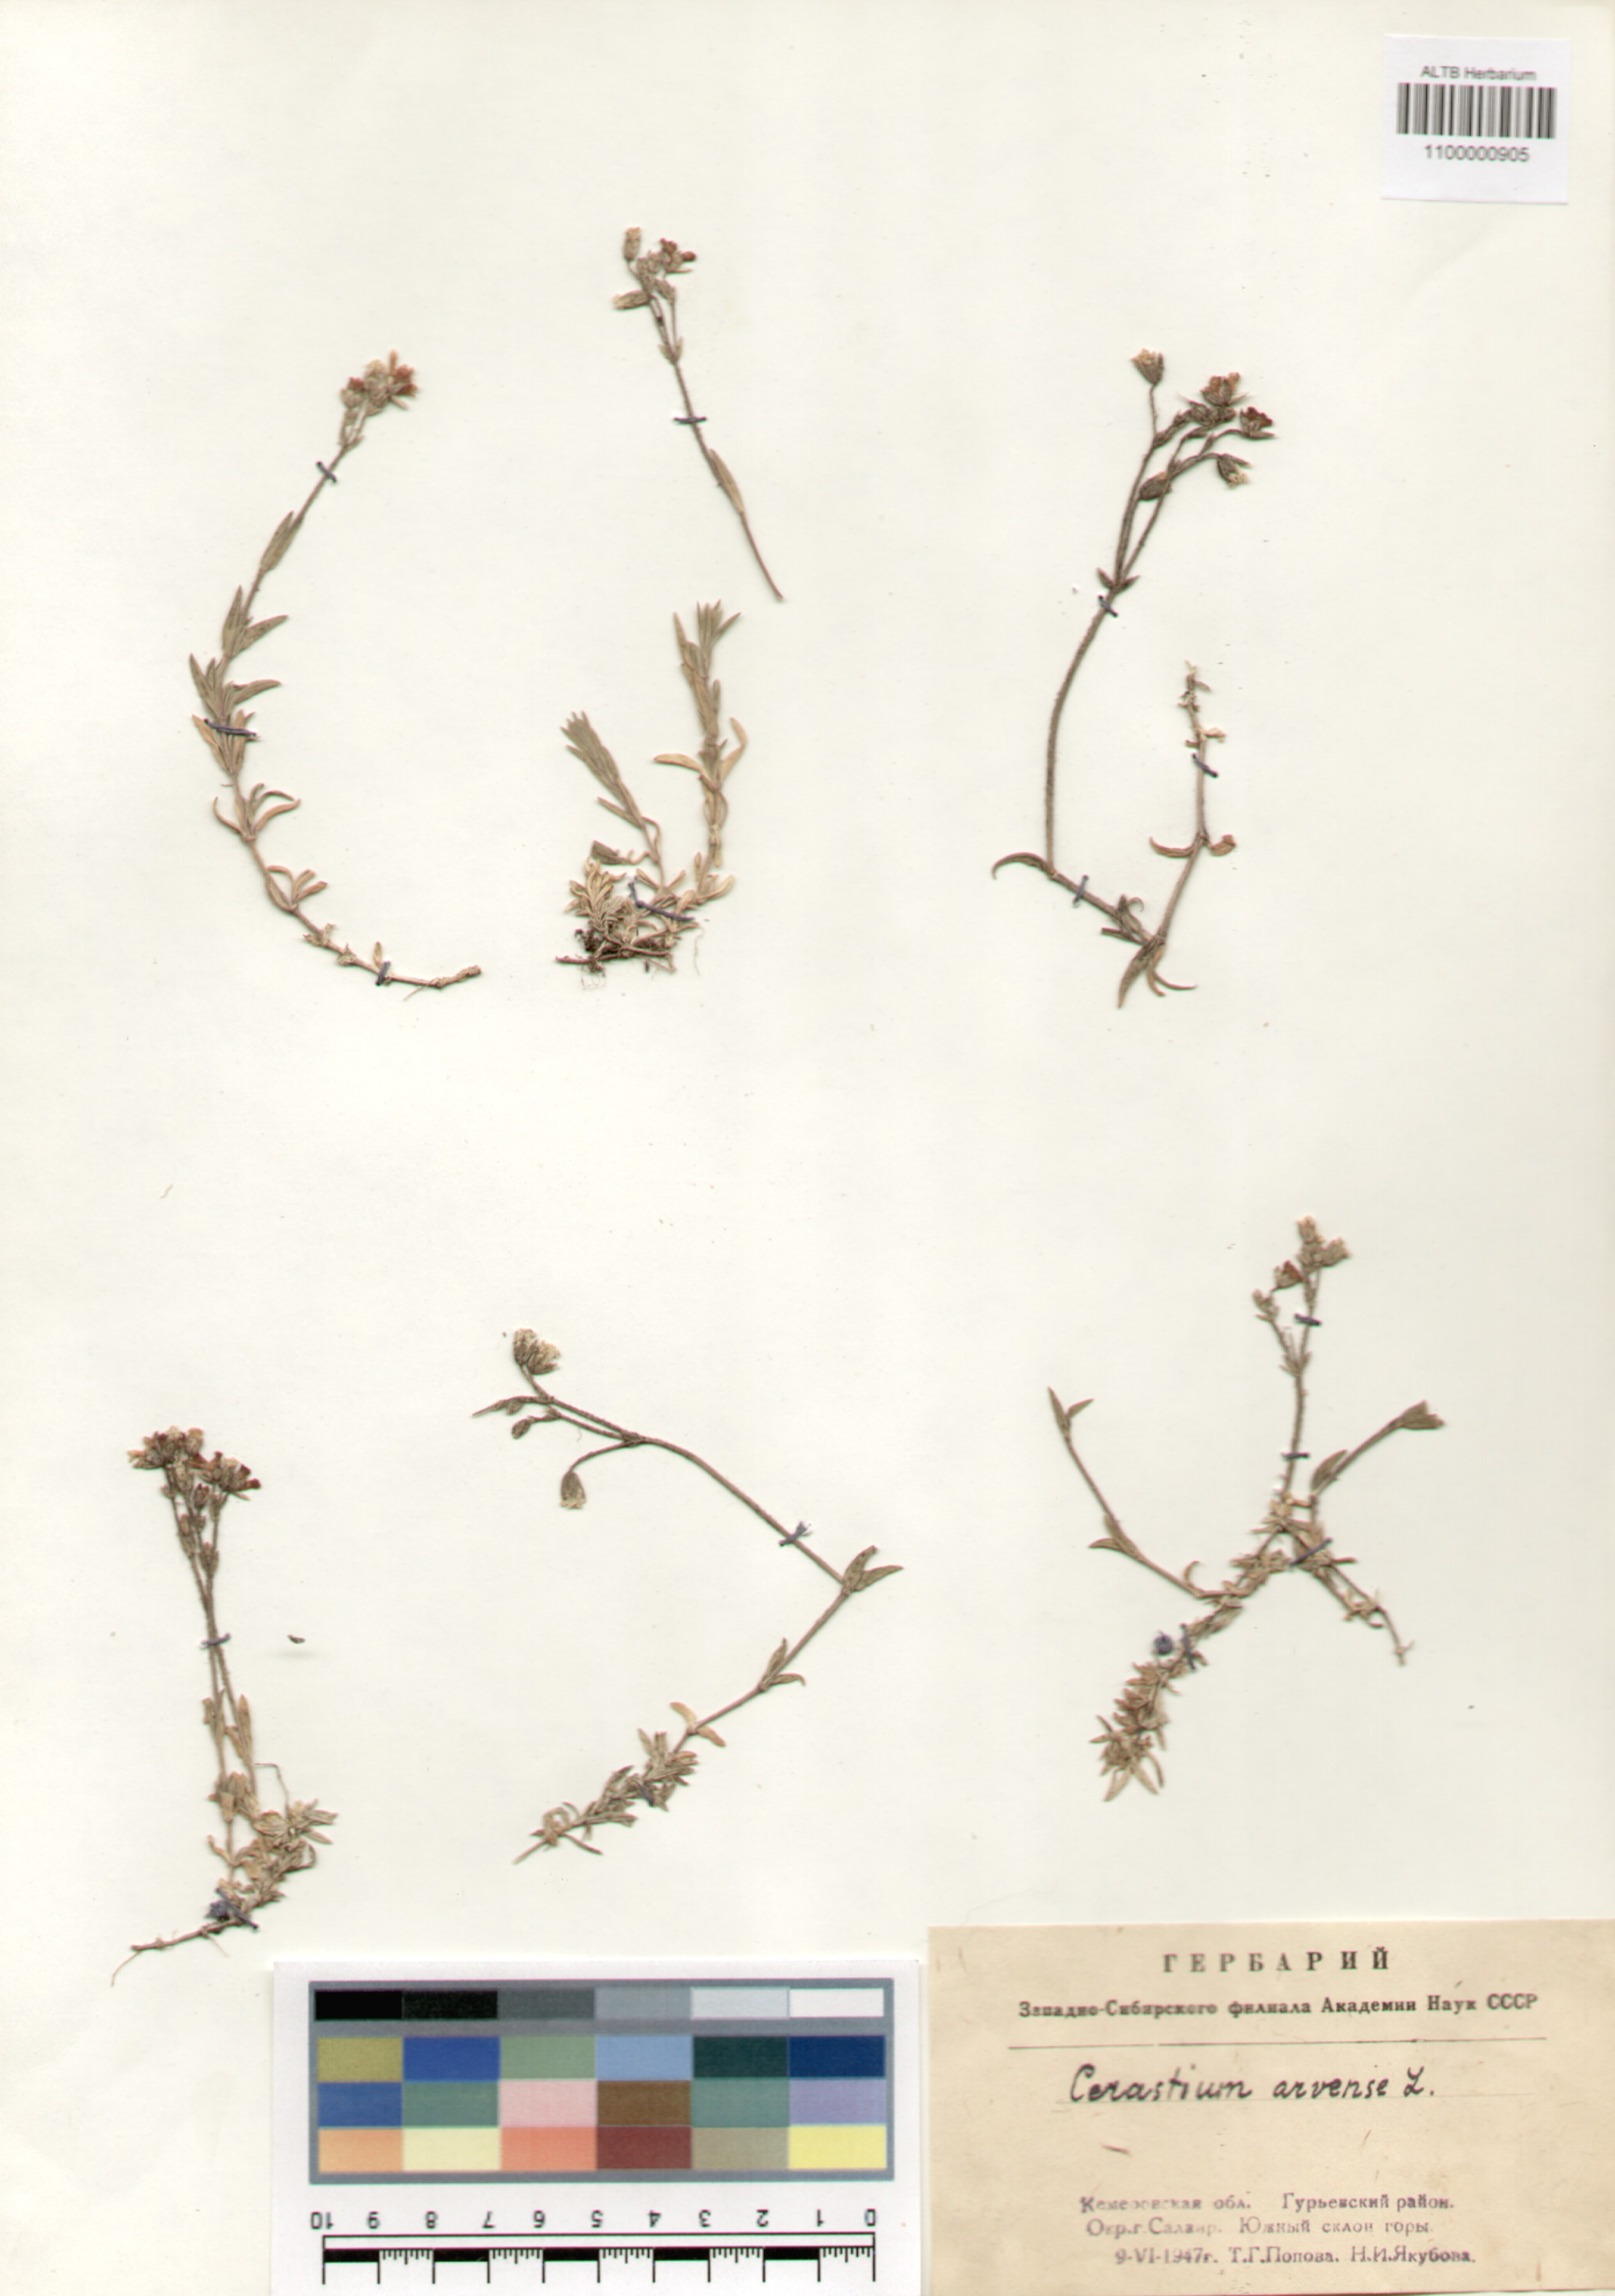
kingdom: Plantae
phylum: Tracheophyta
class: Magnoliopsida
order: Caryophyllales
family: Caryophyllaceae
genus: Cerastium
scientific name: Cerastium arvense
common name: Field mouse-ear
